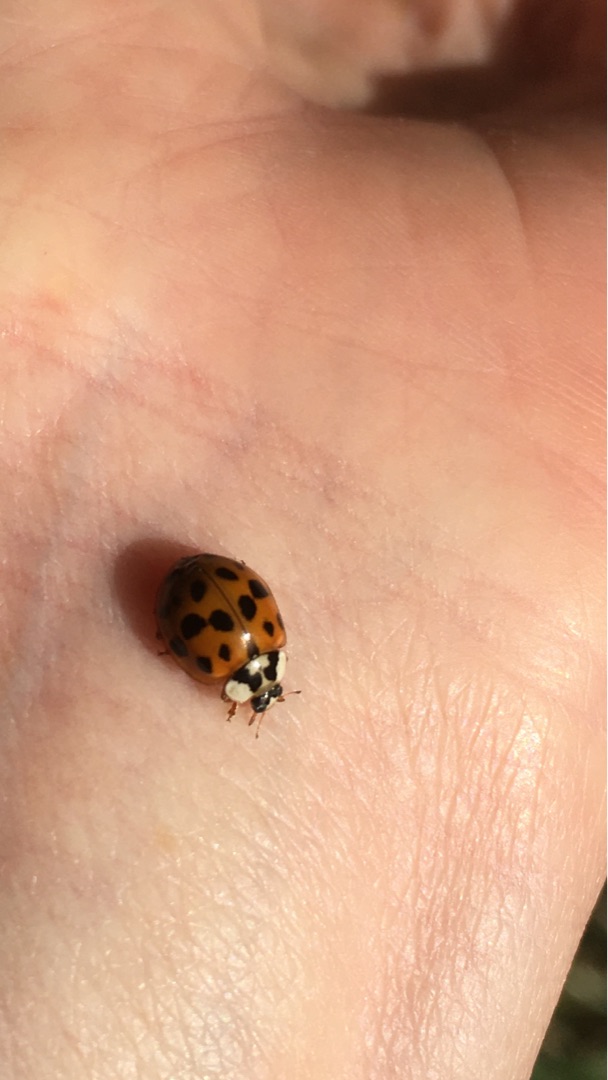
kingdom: Animalia
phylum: Arthropoda
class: Insecta
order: Coleoptera
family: Coccinellidae
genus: Harmonia
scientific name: Harmonia axyridis
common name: Harlekinmariehøne
